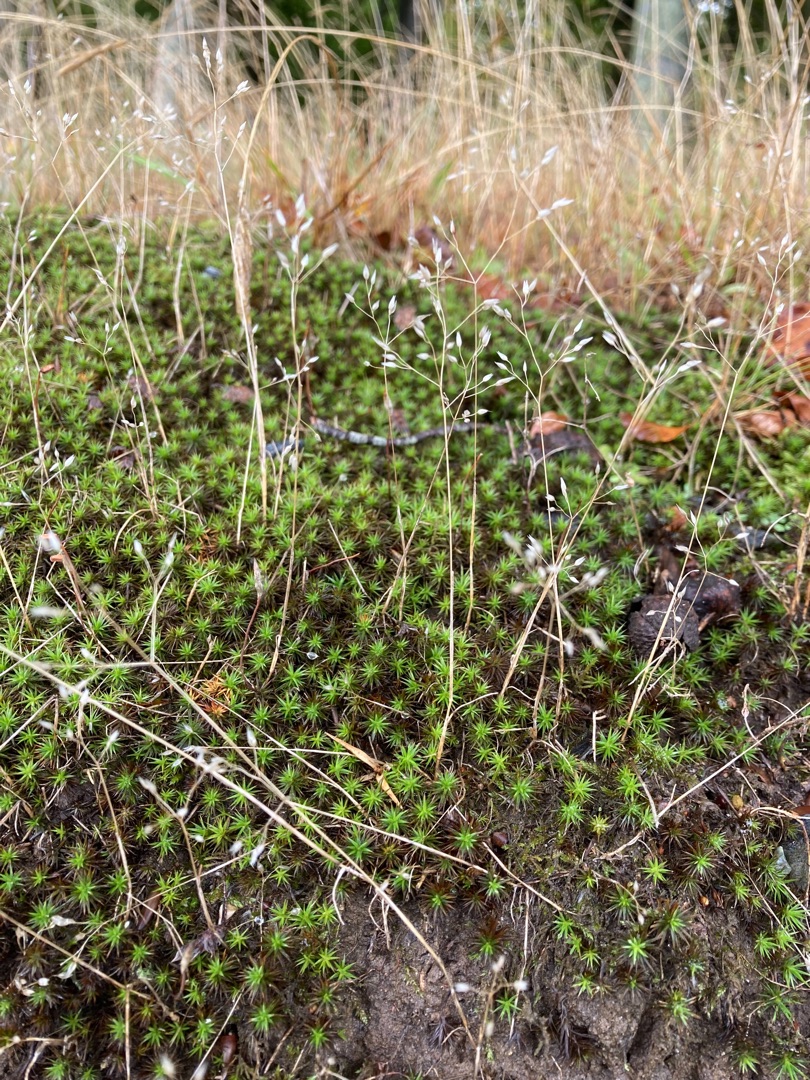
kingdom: Plantae
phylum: Tracheophyta
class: Liliopsida
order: Poales
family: Poaceae
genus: Aira
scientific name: Aira caryophyllea
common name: Udspærret dværgbunke
